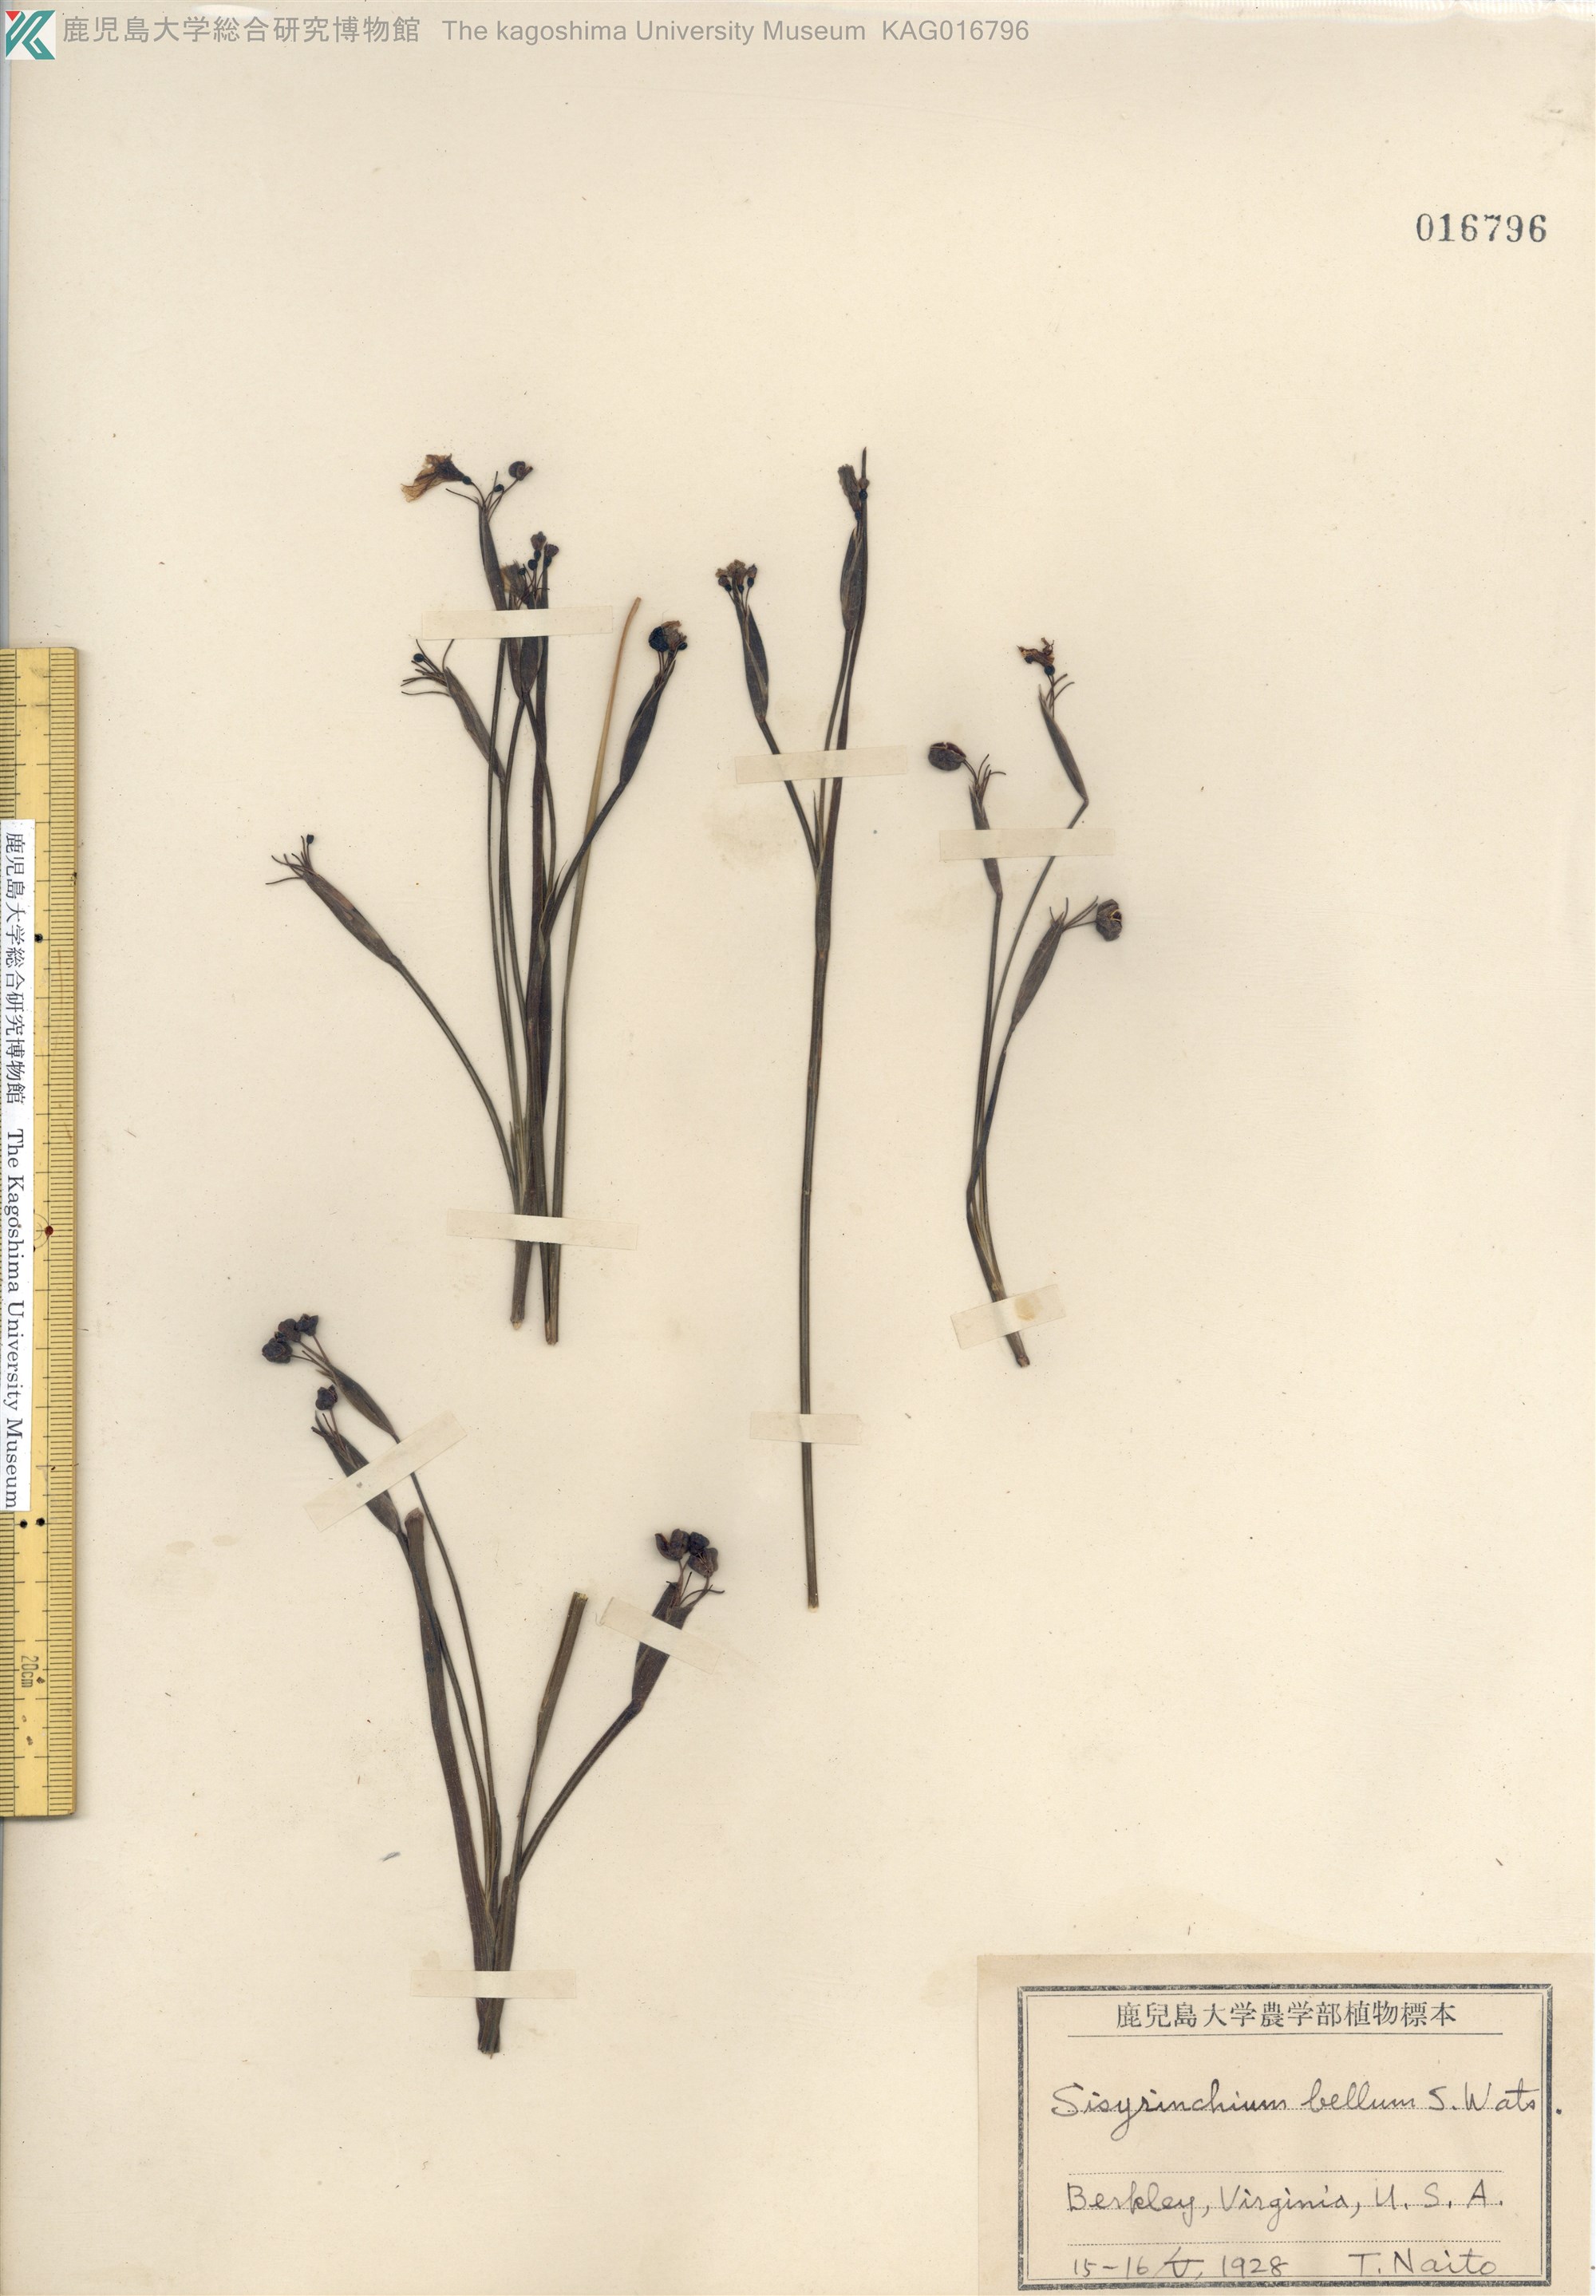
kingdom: Plantae
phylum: Tracheophyta
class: Liliopsida
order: Asparagales
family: Iridaceae
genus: Sisyrinchium
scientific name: Sisyrinchium bellum
